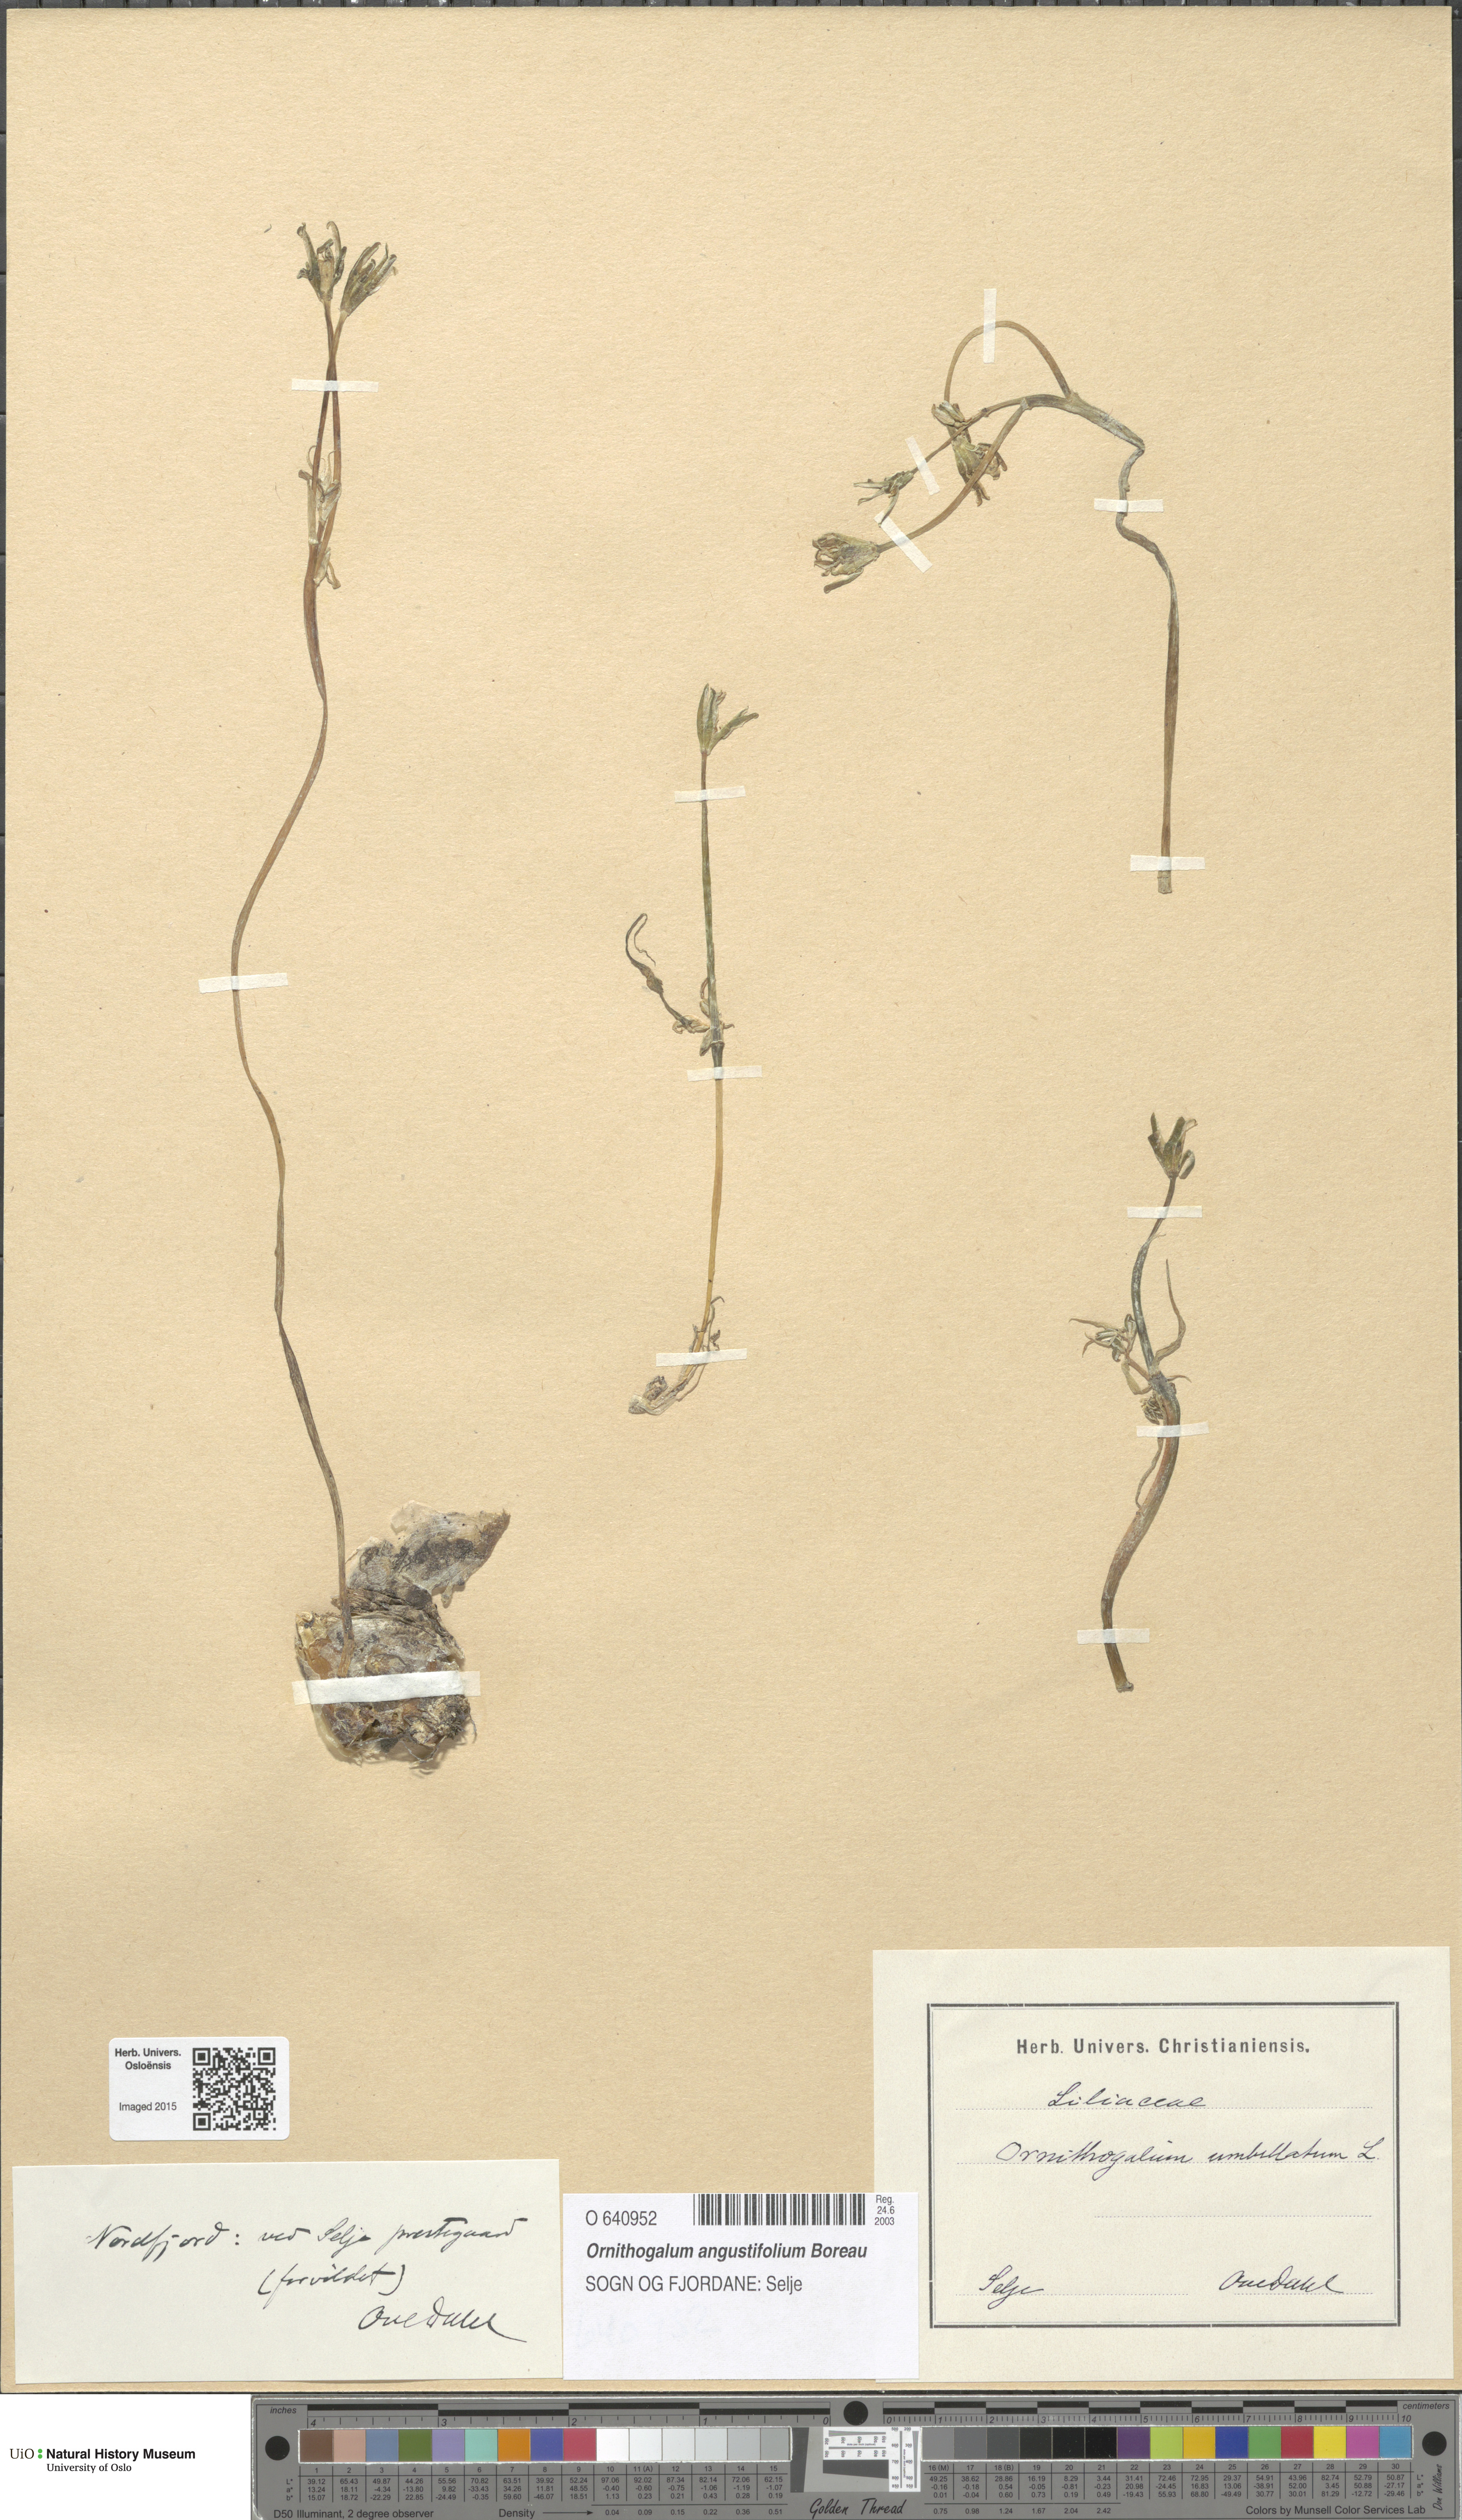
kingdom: Plantae
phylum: Tracheophyta
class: Liliopsida
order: Asparagales
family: Asparagaceae
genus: Ornithogalum
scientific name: Ornithogalum umbellatum
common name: Garden star-of-bethlehem
